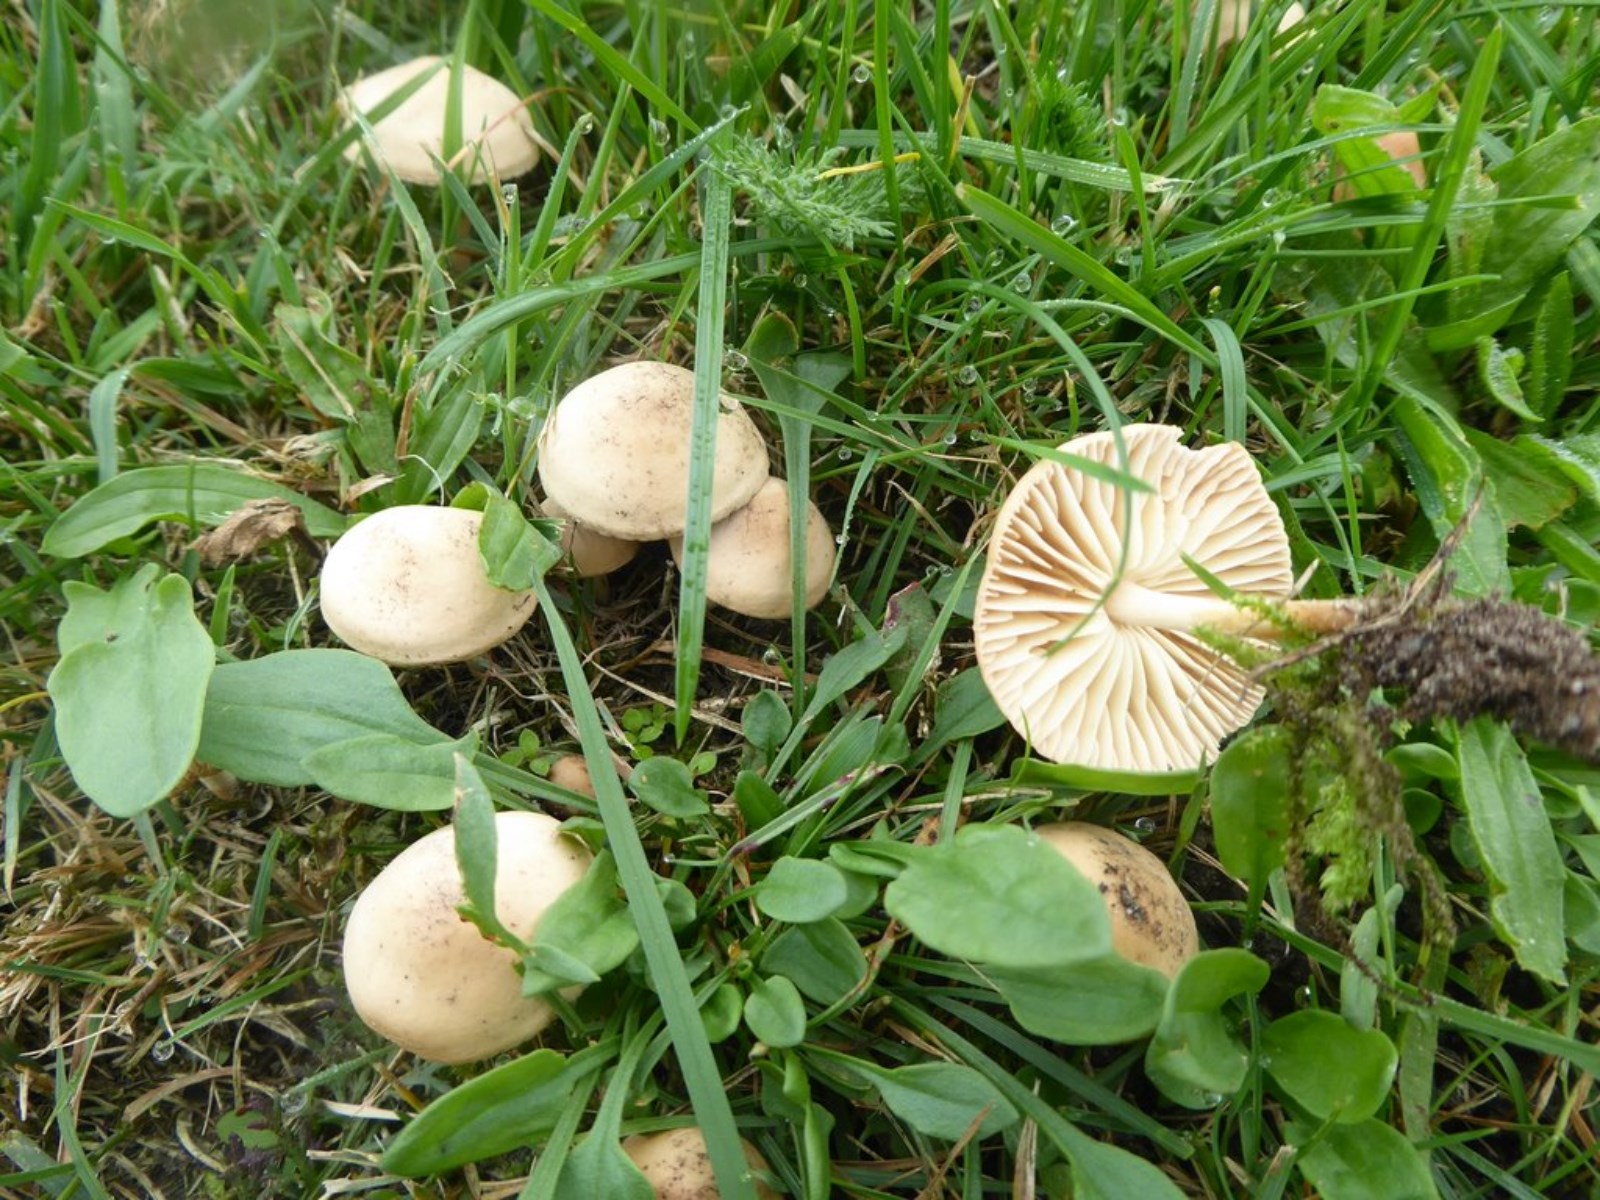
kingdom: Fungi
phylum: Basidiomycota
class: Agaricomycetes
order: Agaricales
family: Marasmiaceae
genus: Marasmius
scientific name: Marasmius oreades
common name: elledans-bruskhat
